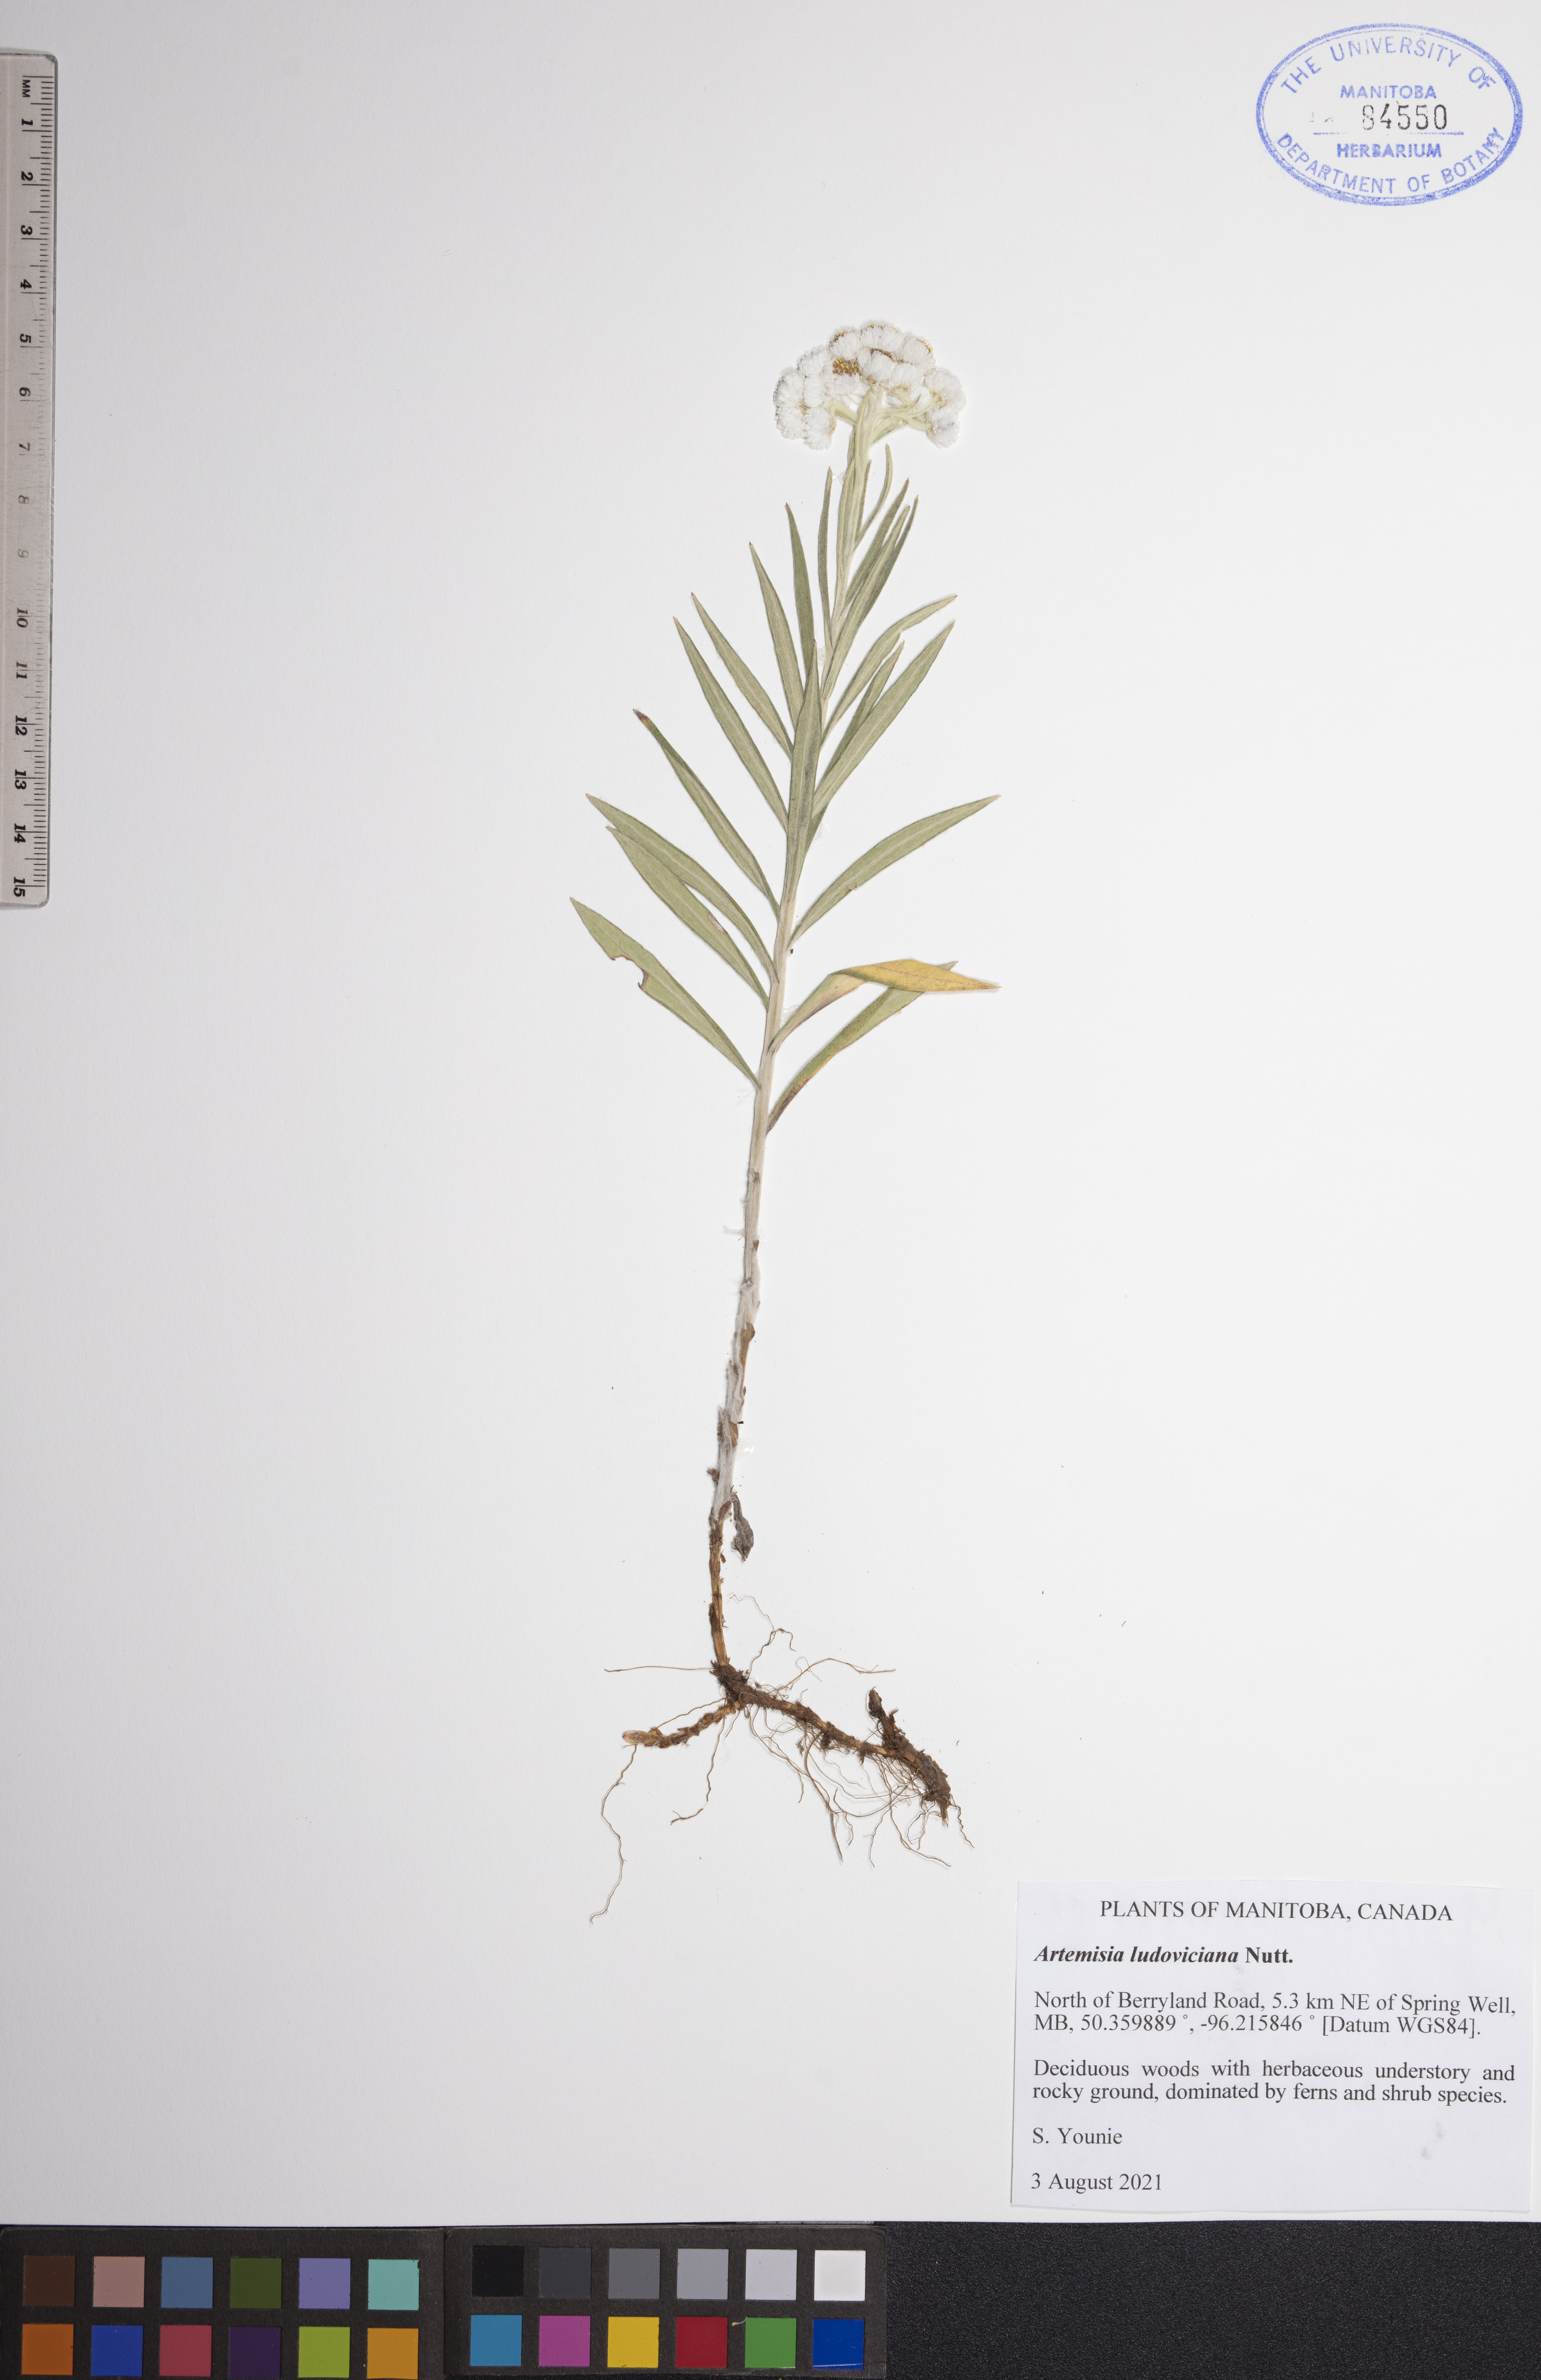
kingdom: Plantae
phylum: Tracheophyta
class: Magnoliopsida
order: Asterales
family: Asteraceae
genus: Artemisia
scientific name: Artemisia ludoviciana
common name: Western mugwort
